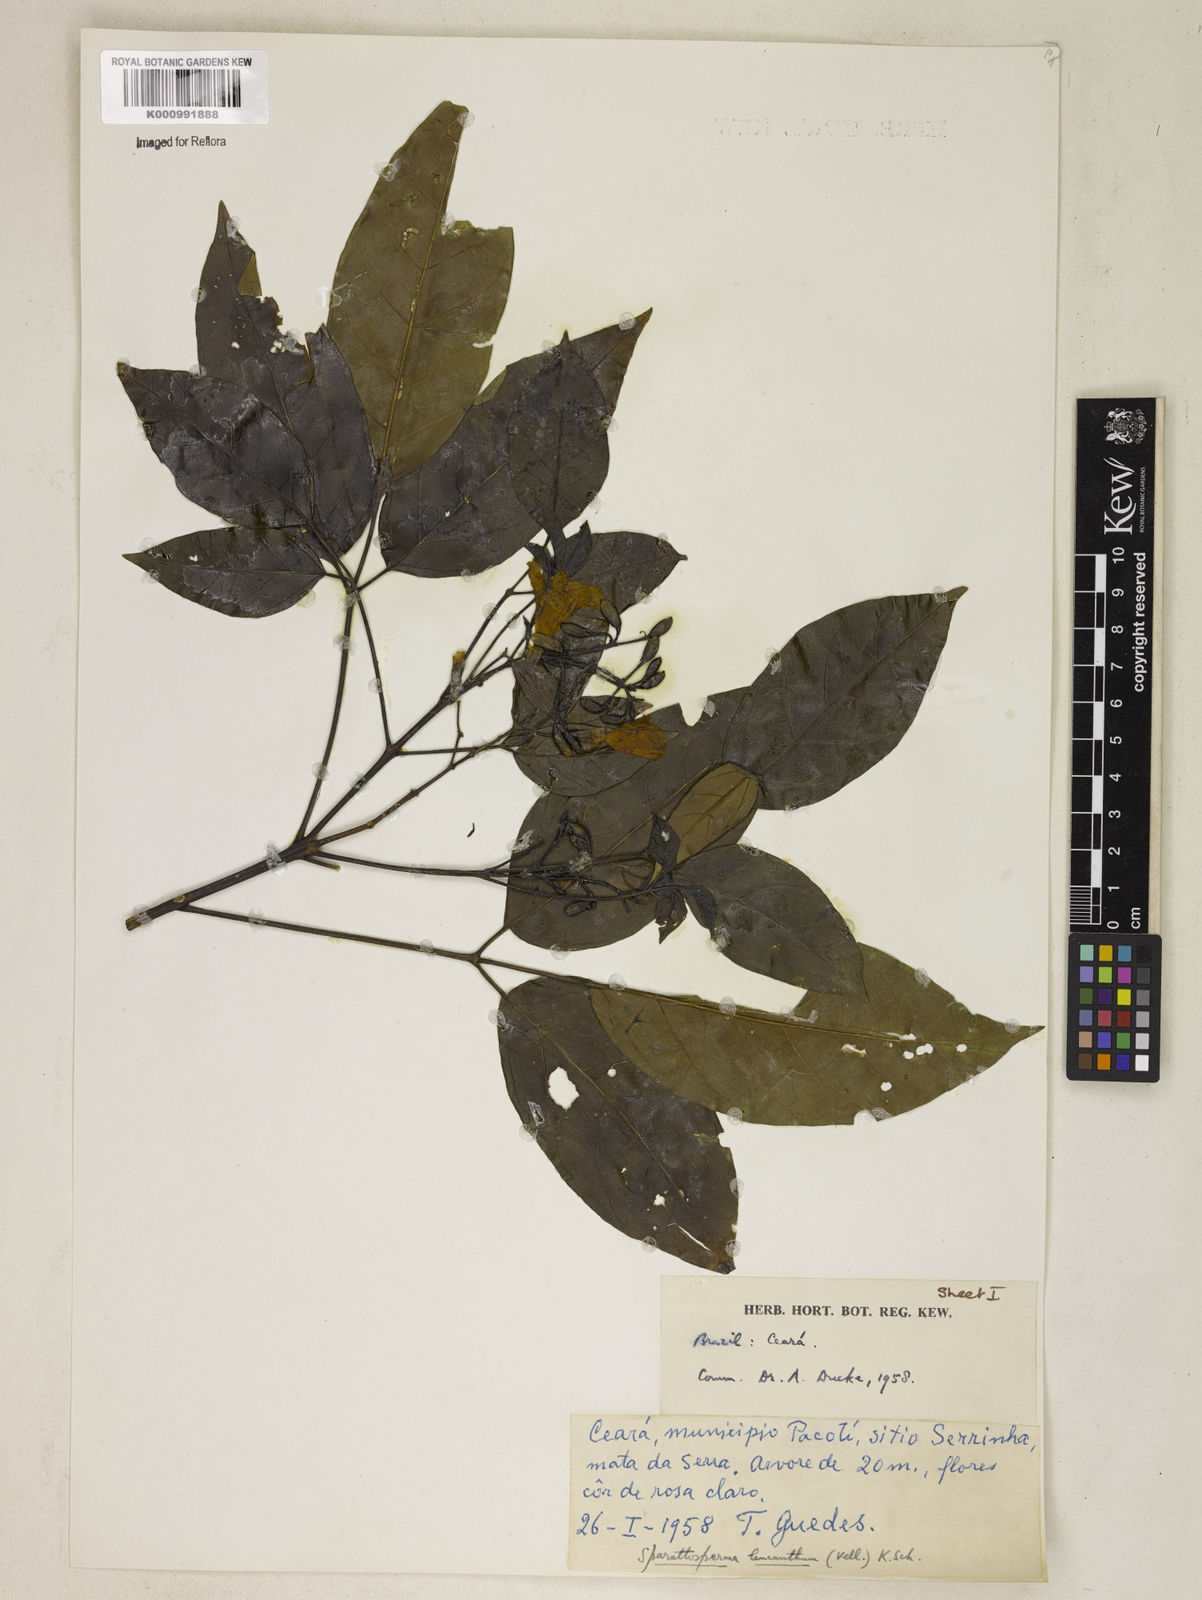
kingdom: Plantae
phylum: Tracheophyta
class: Magnoliopsida
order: Lamiales
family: Bignoniaceae
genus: Sparattosperma
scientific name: Sparattosperma leucanthum
